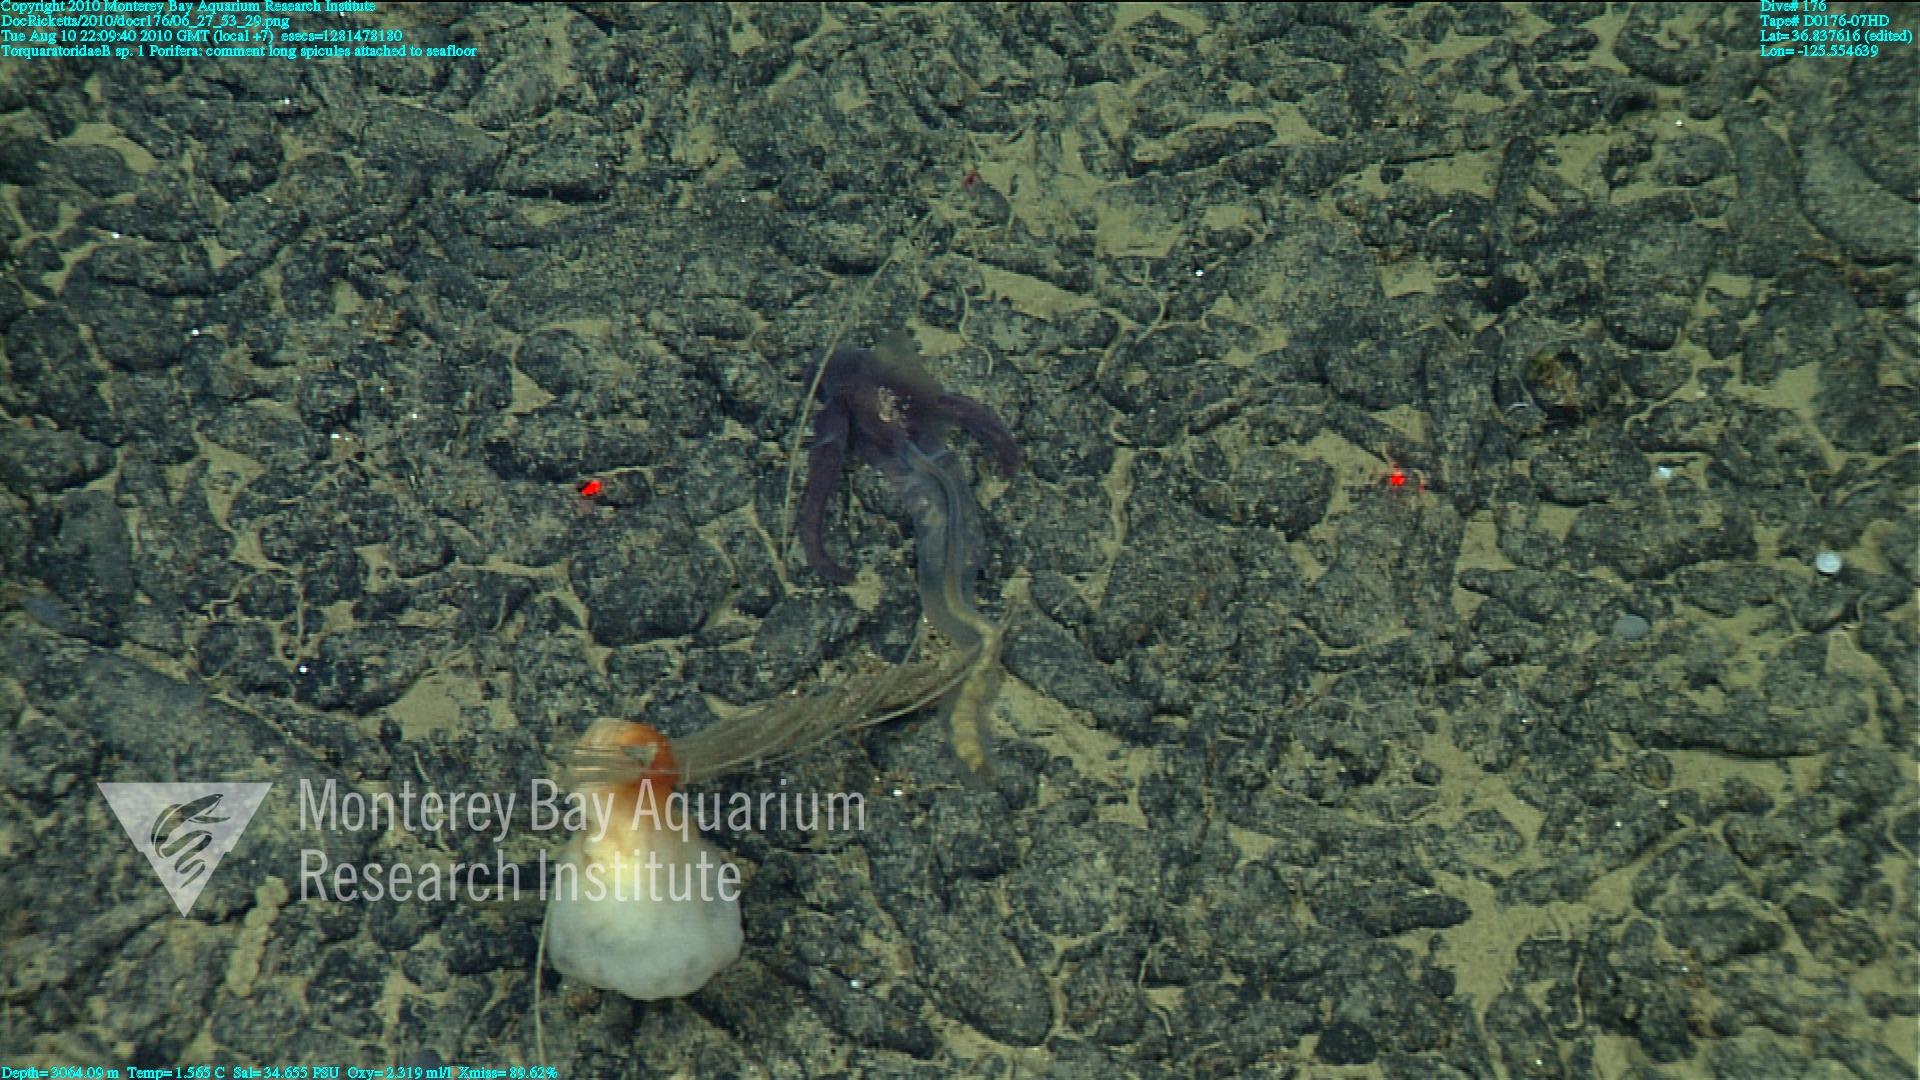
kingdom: Animalia
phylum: Porifera
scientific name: Porifera
